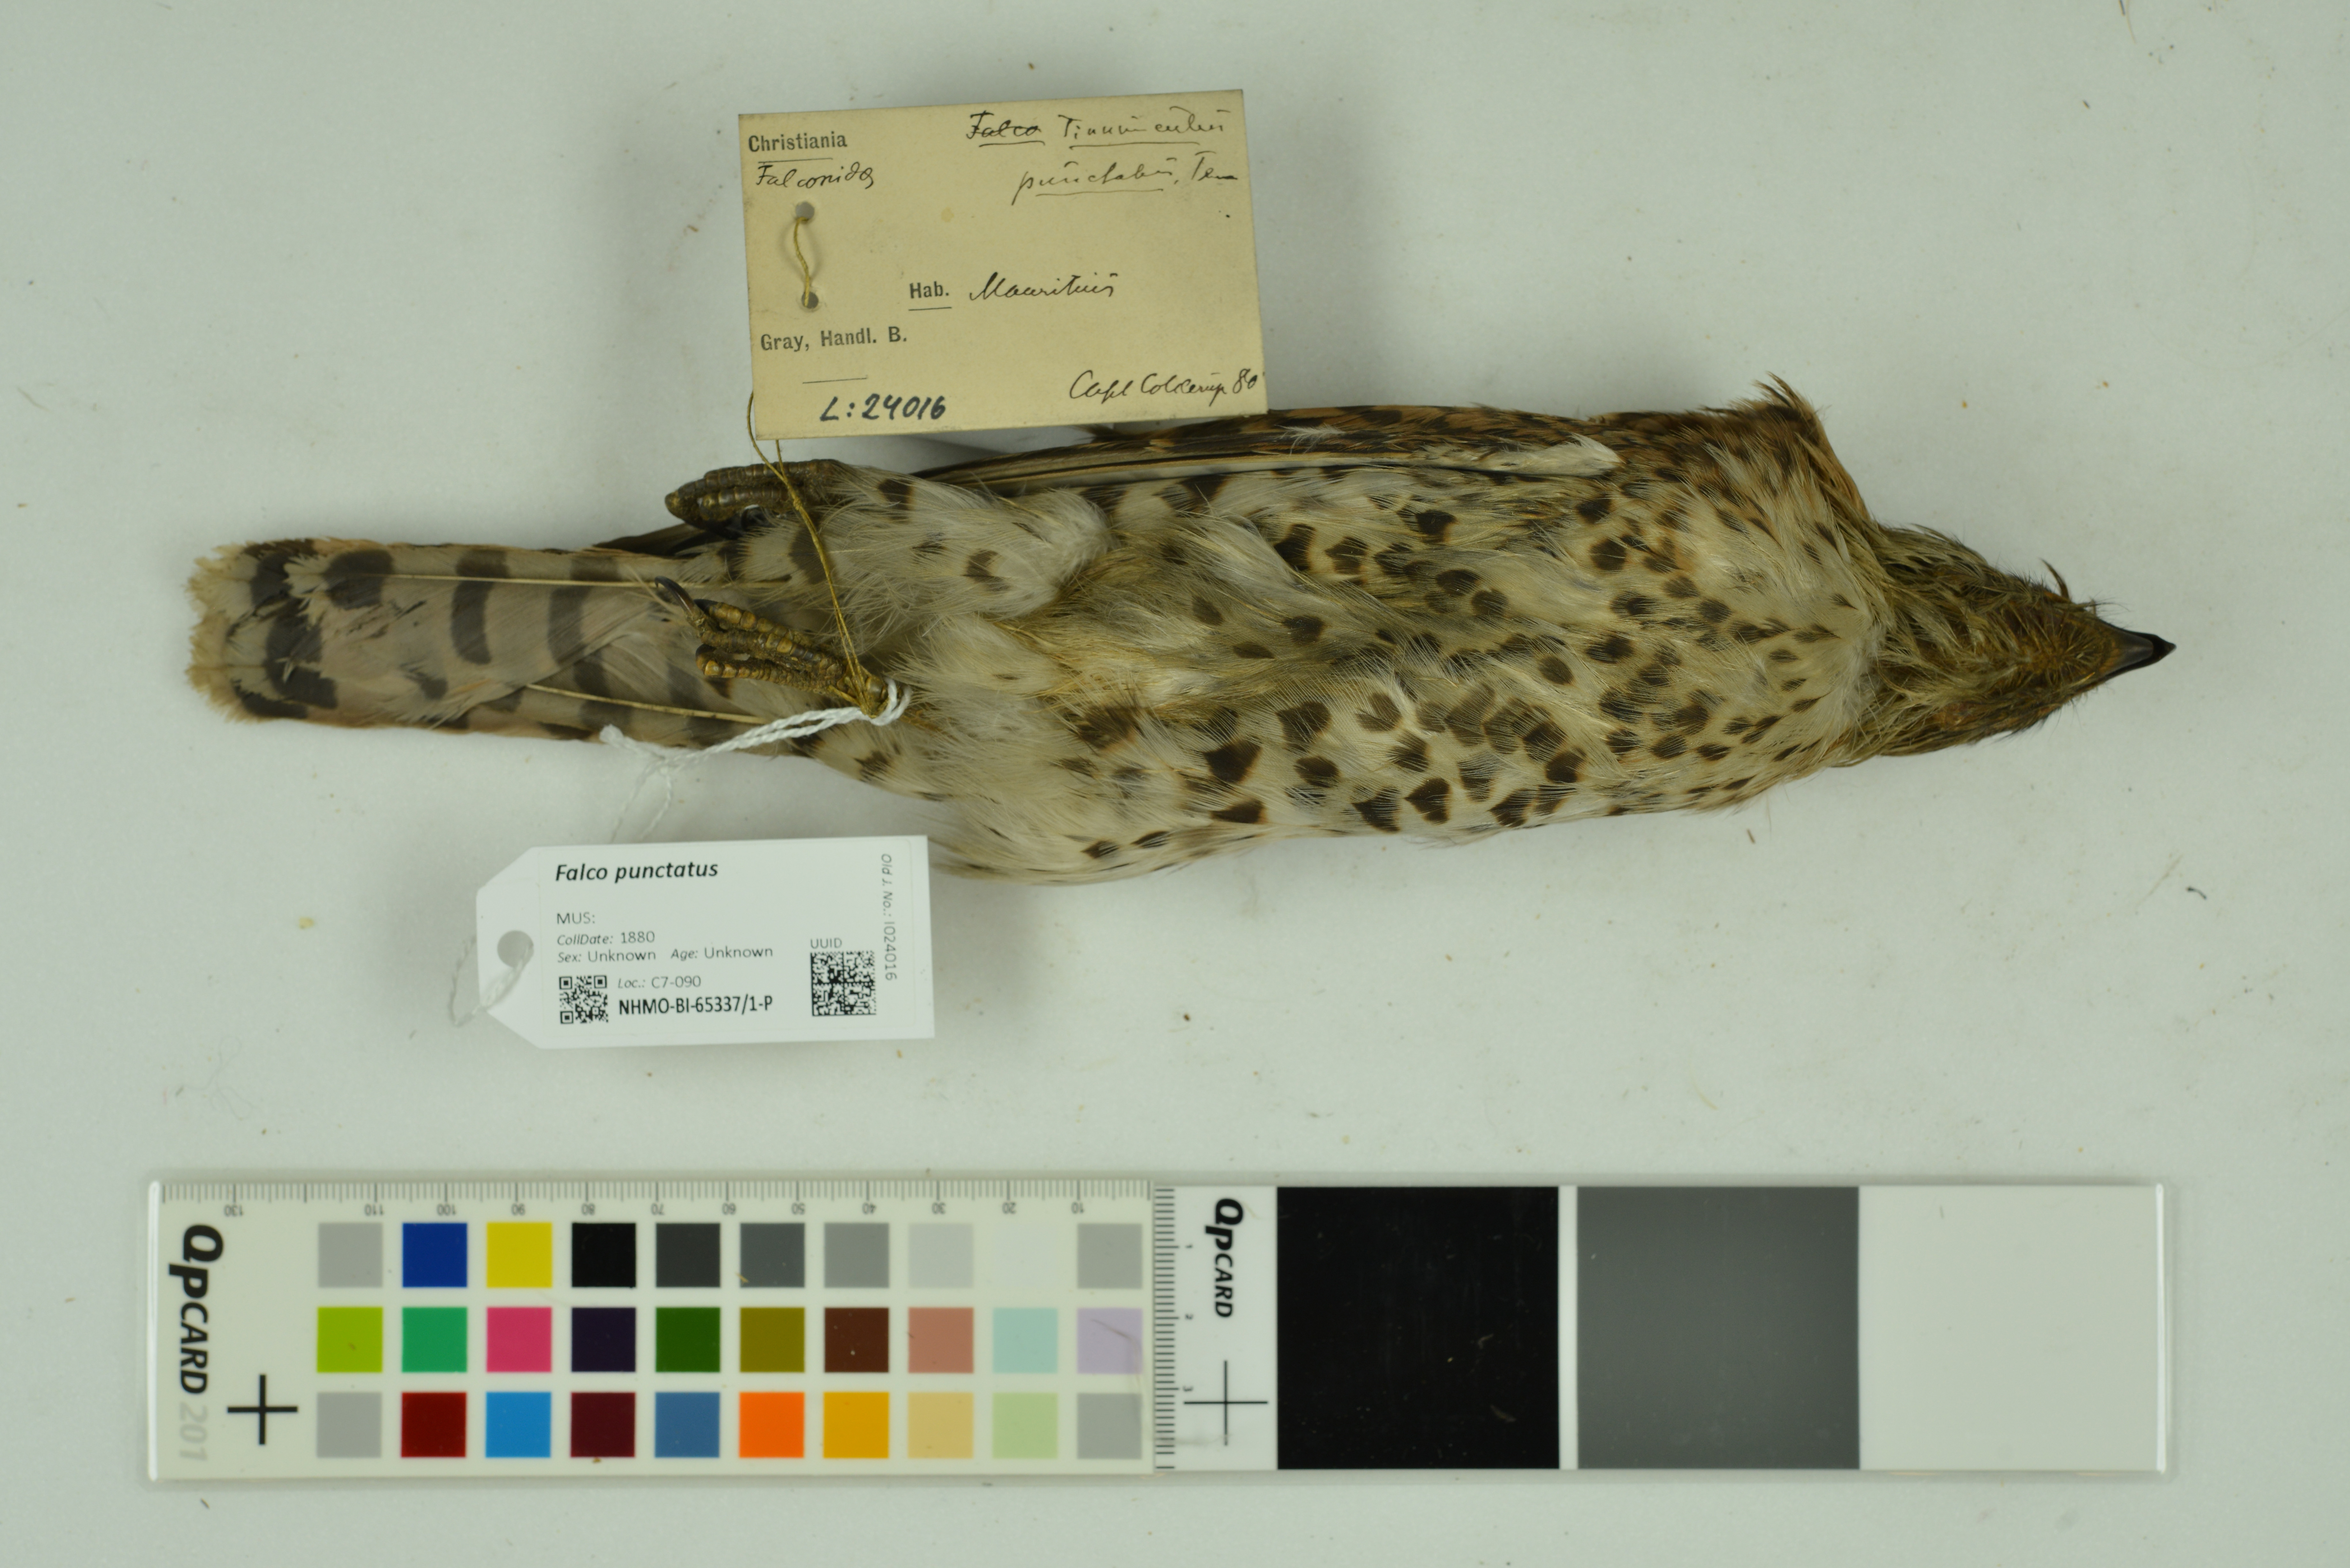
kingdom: Animalia
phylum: Chordata
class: Aves
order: Falconiformes
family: Falconidae
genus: Falco
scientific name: Falco punctatus
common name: Mauritius kestrel
